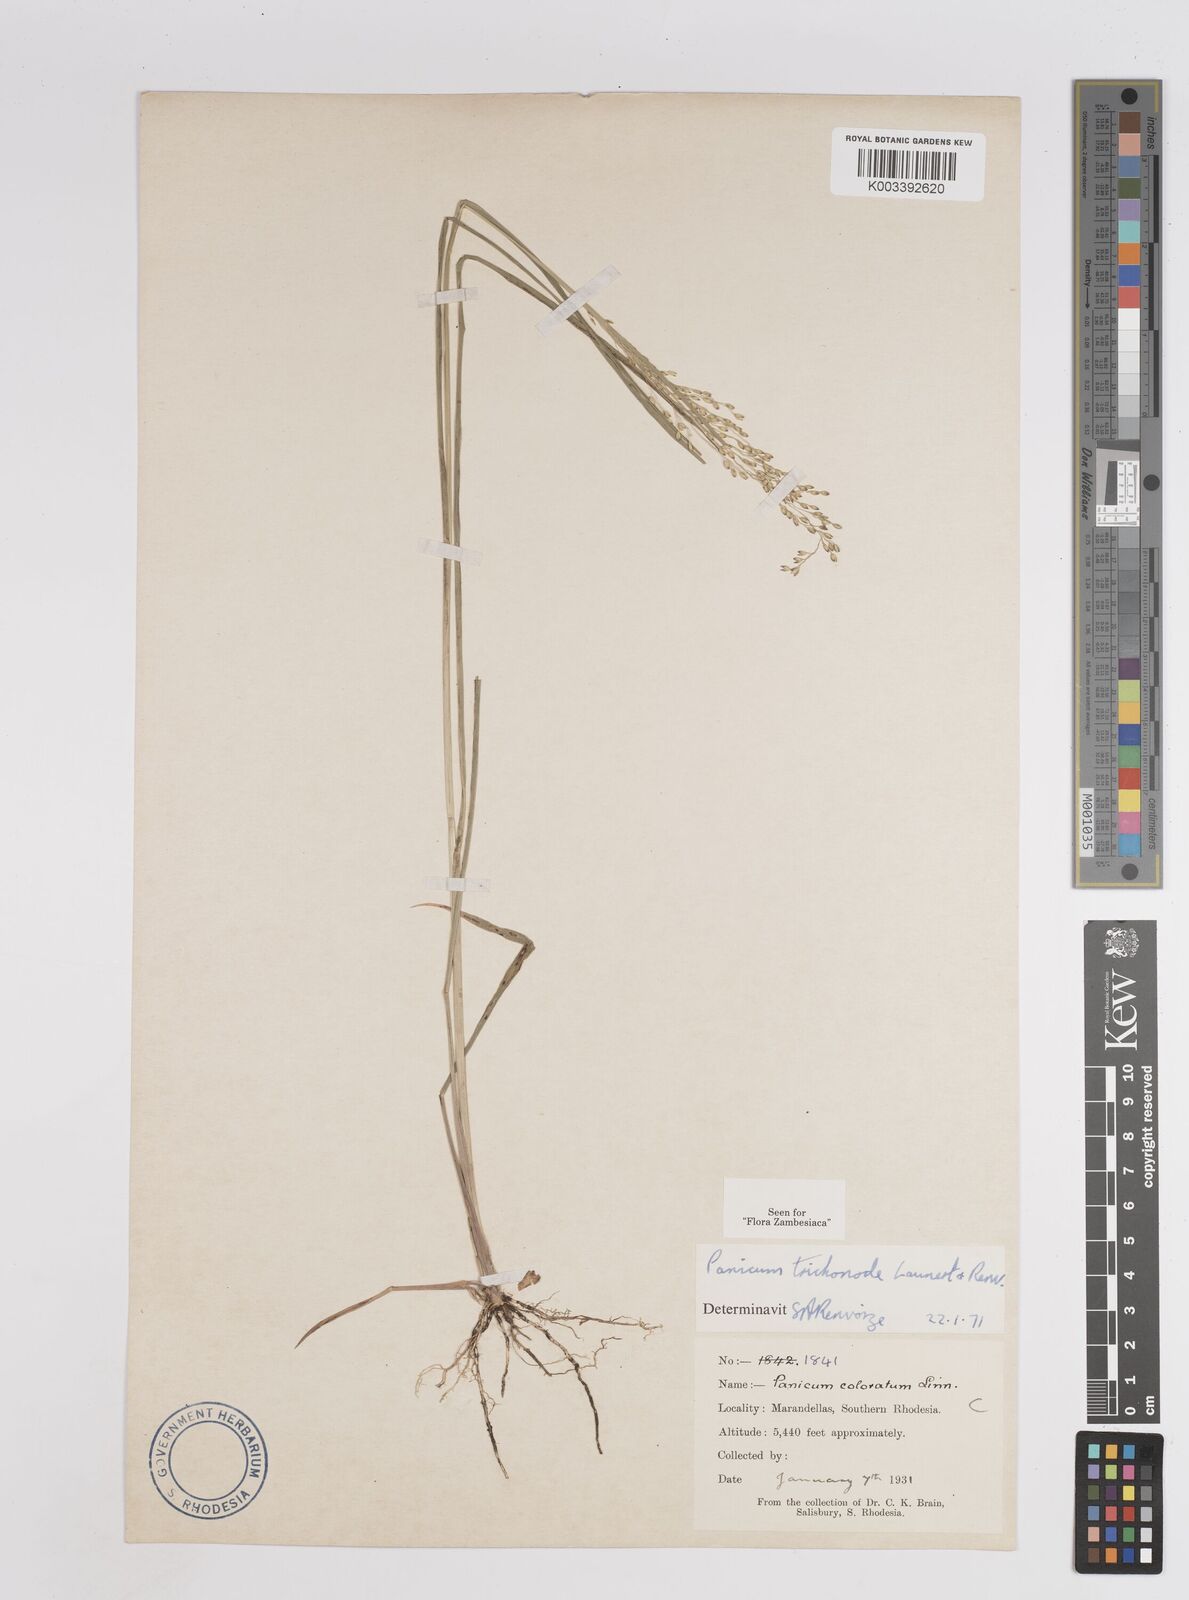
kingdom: Plantae
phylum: Tracheophyta
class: Liliopsida
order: Poales
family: Poaceae
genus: Panicum
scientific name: Panicum trichonode
